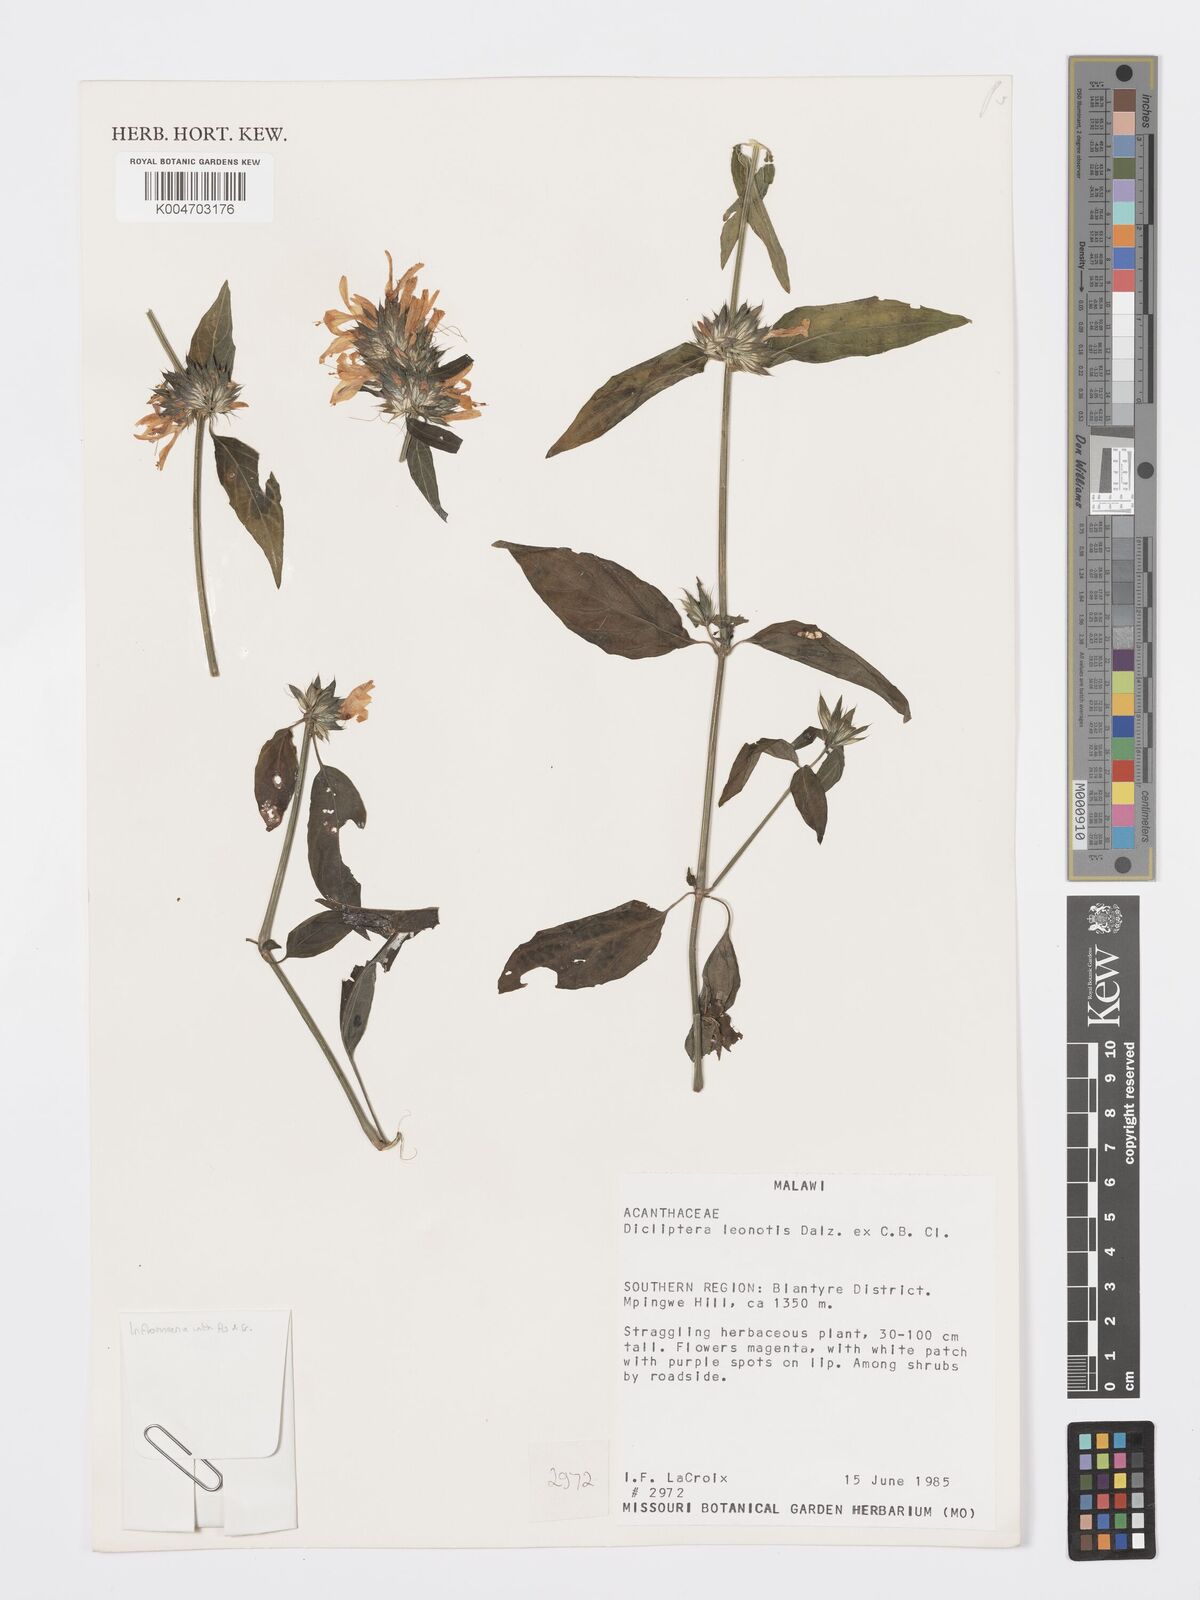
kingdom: Plantae
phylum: Tracheophyta
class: Magnoliopsida
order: Lamiales
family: Acanthaceae
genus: Dicliptera
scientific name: Dicliptera clinopodia
